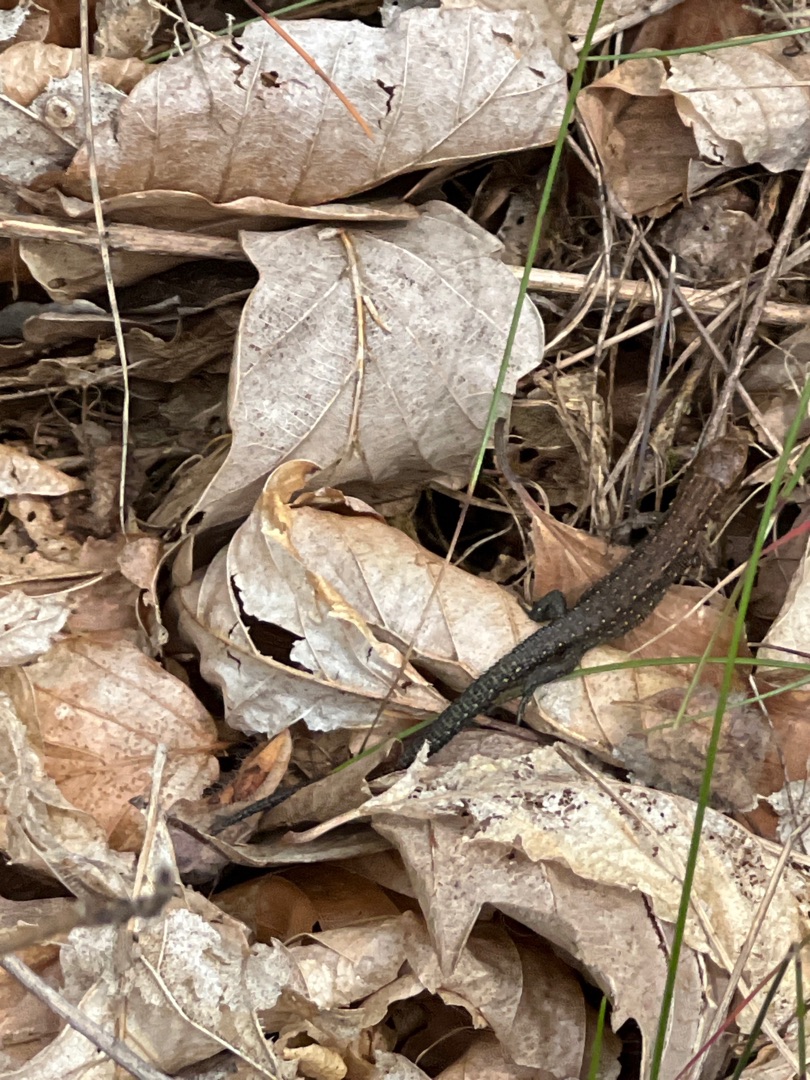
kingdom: Animalia
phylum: Chordata
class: Squamata
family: Lacertidae
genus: Zootoca
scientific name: Zootoca vivipara
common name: Skovfirben
